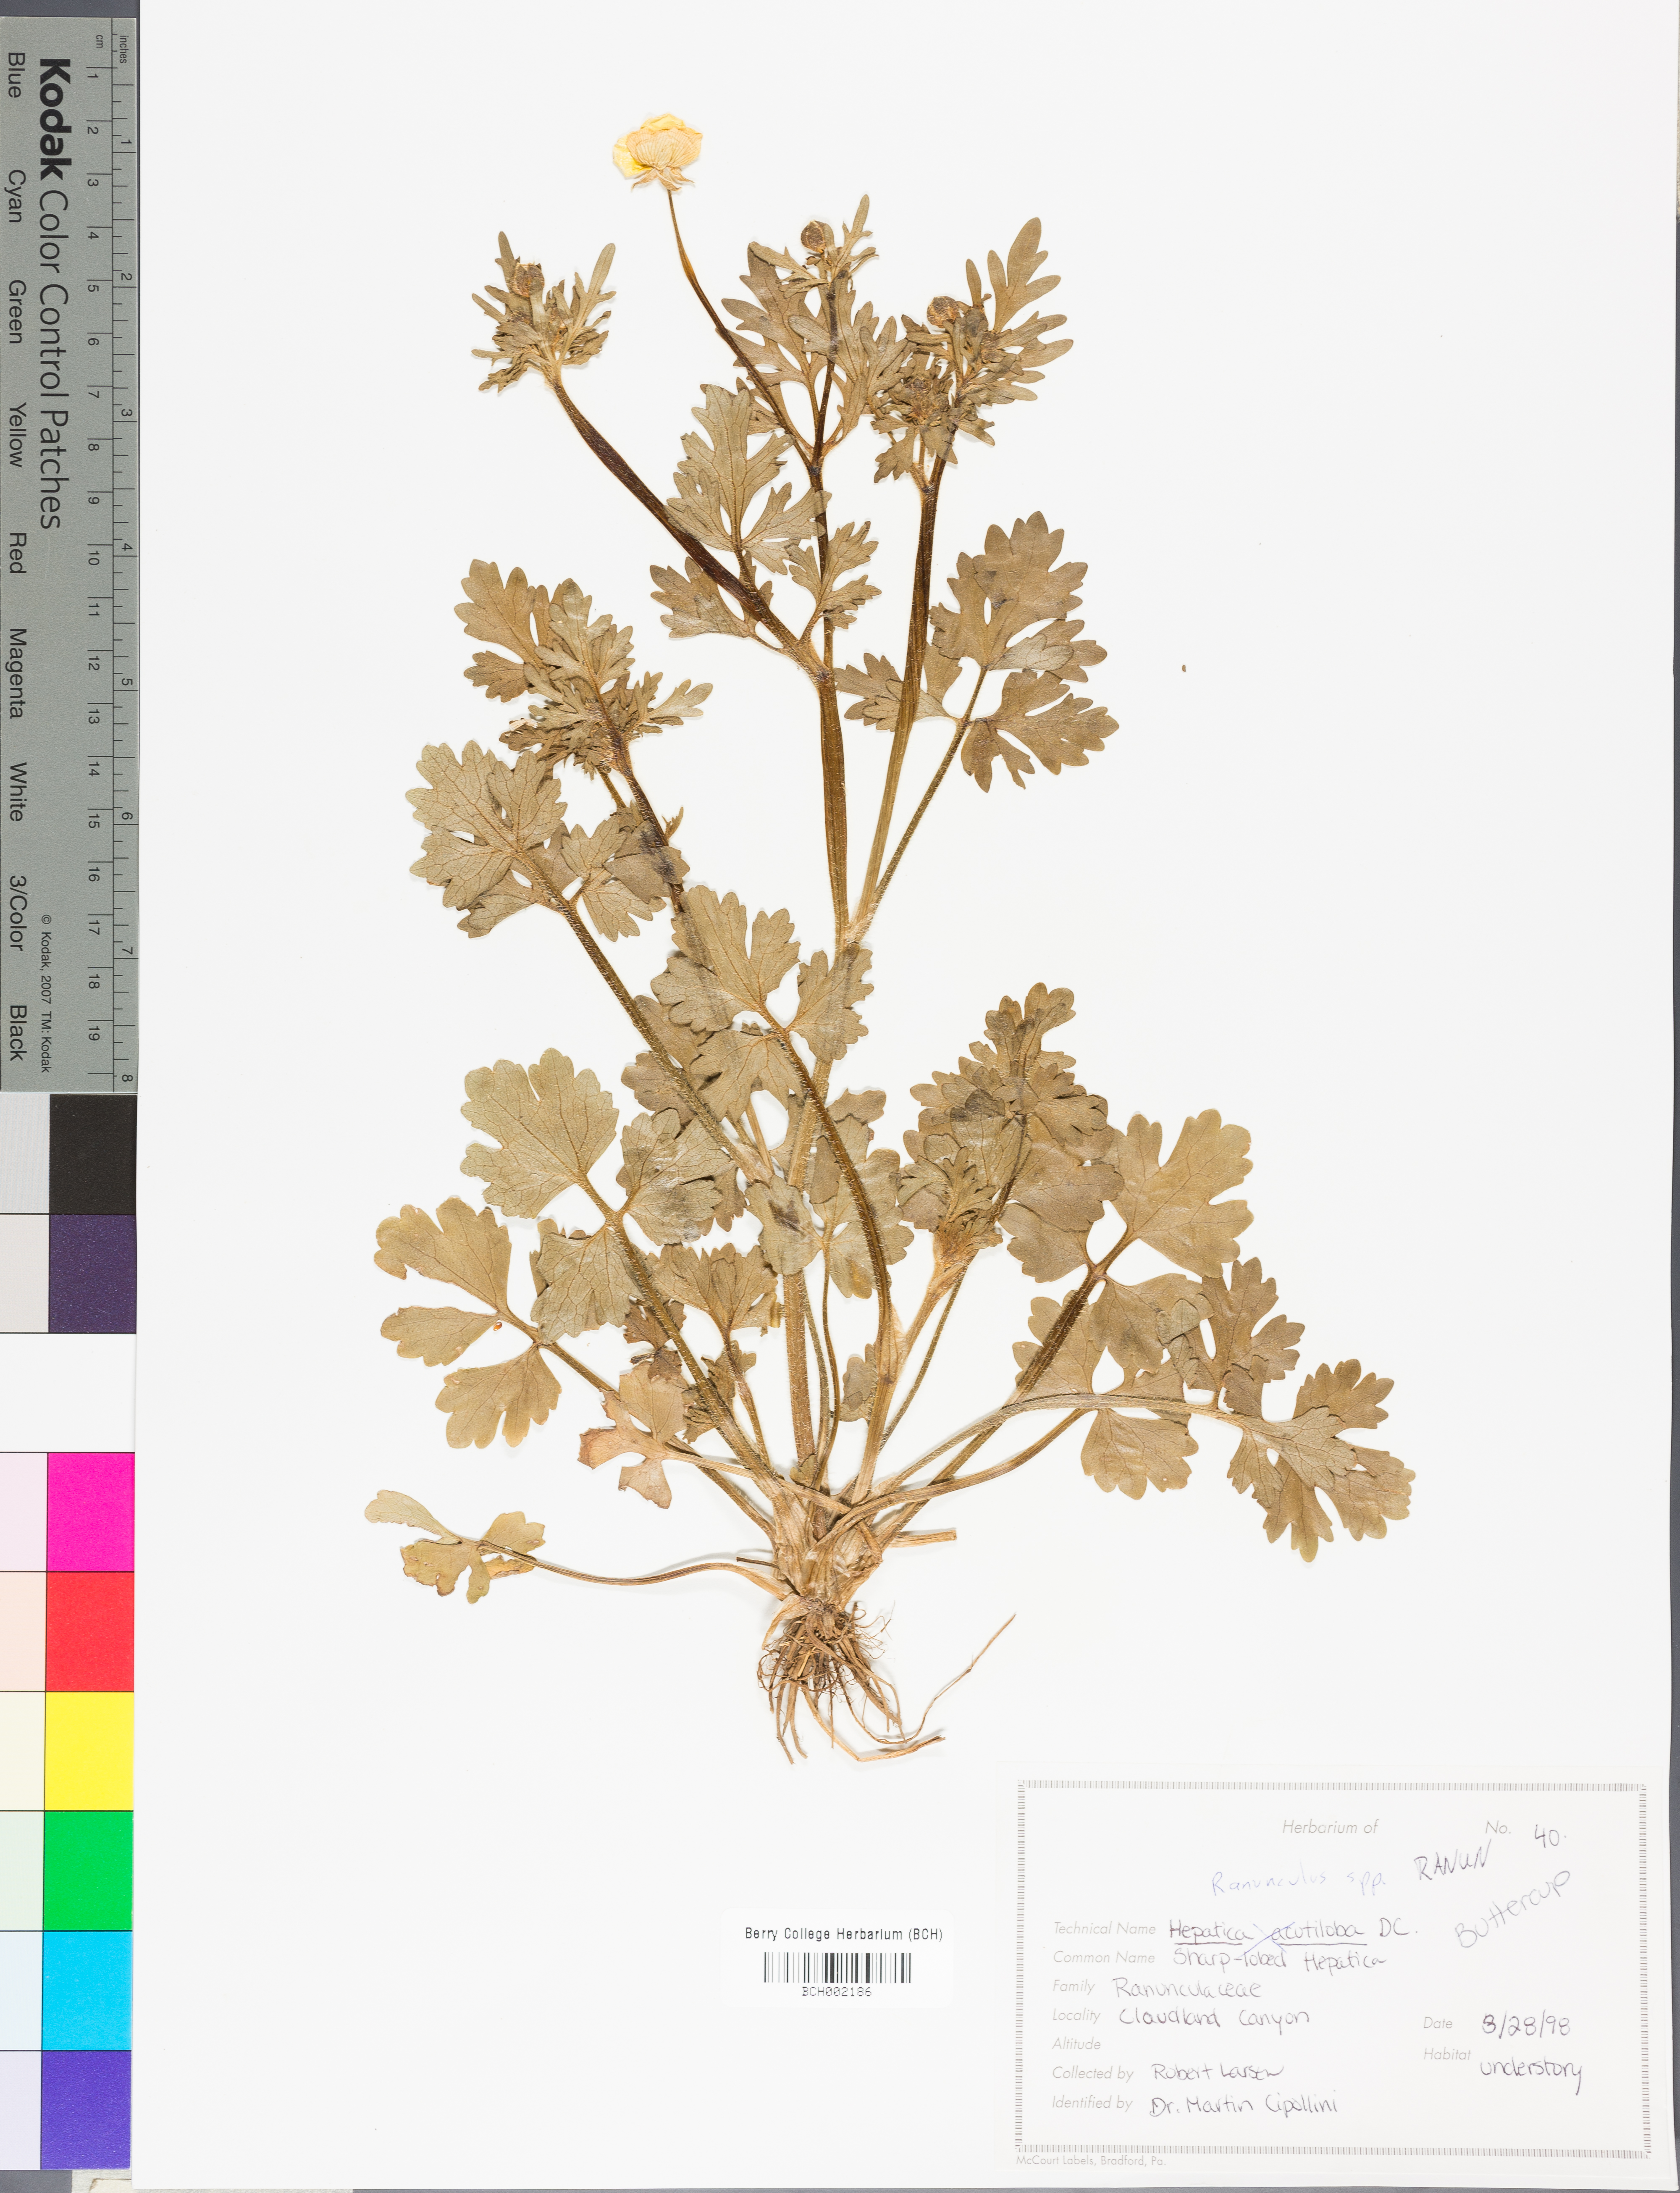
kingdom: Plantae
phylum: Tracheophyta
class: Magnoliopsida
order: Ranunculales
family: Ranunculaceae
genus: Ranunculus
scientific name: Ranunculus
